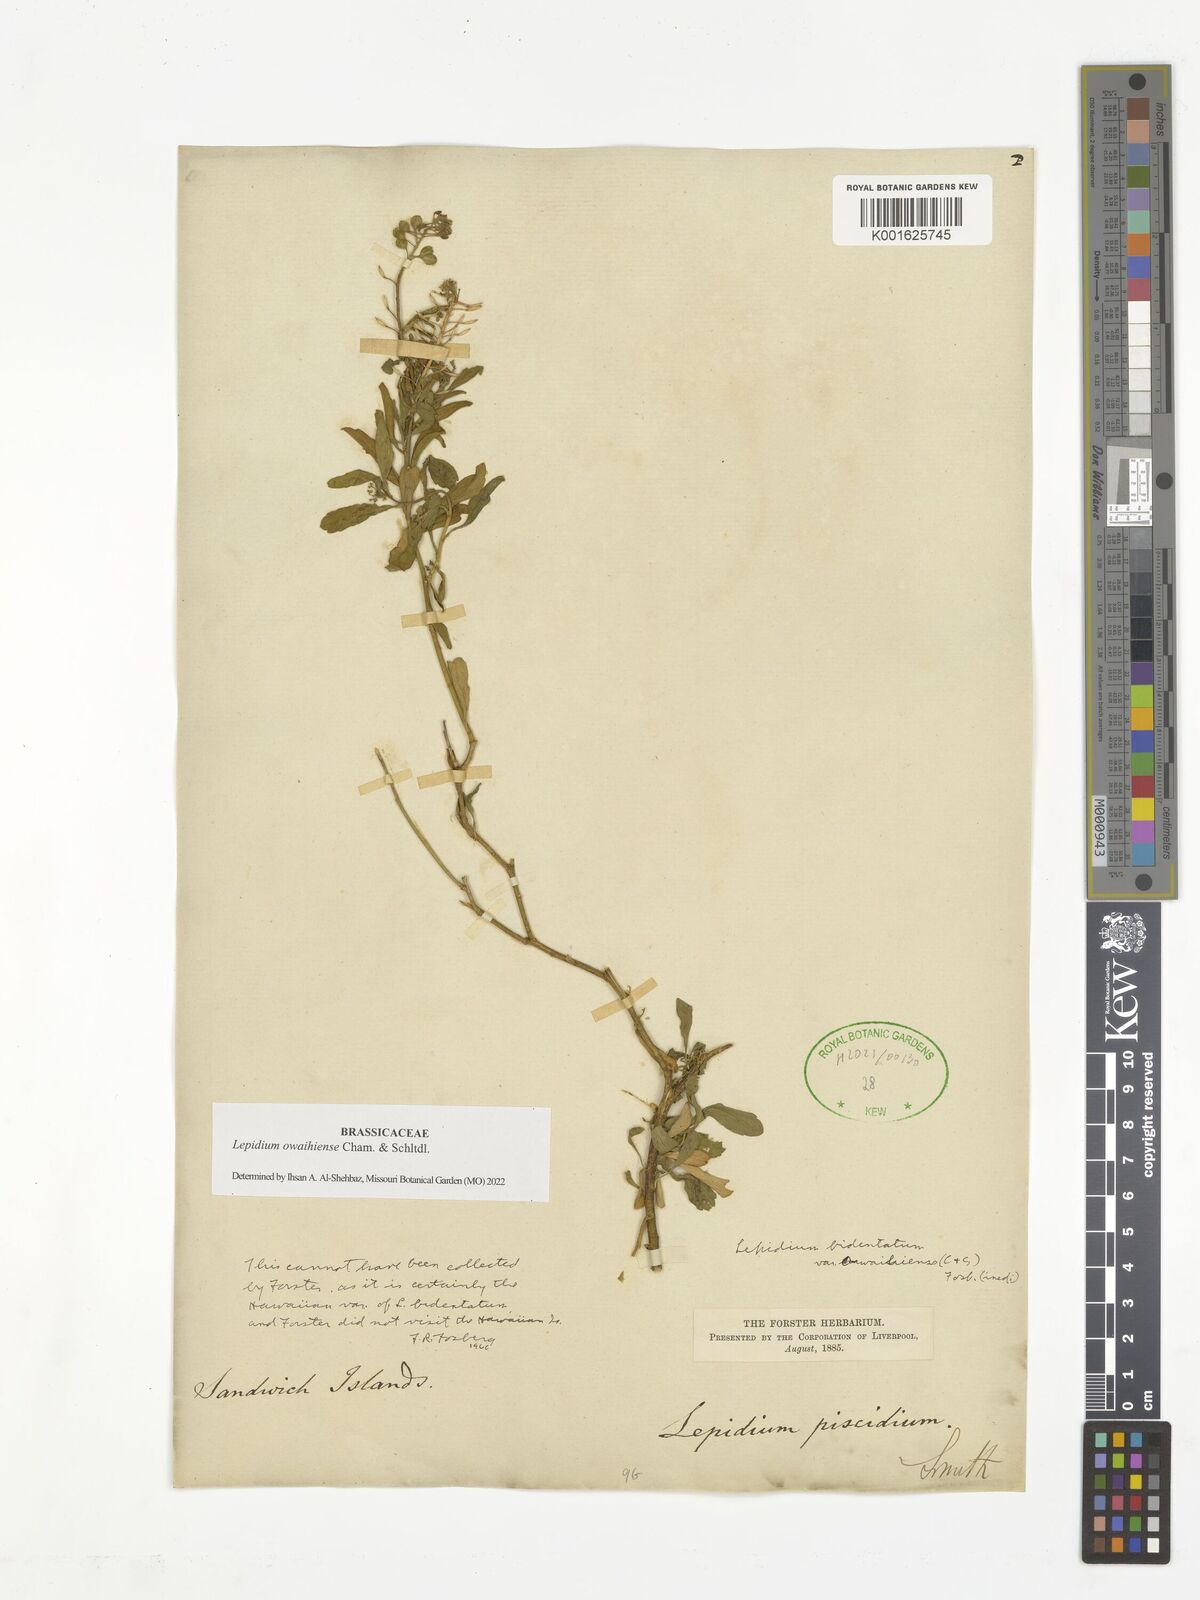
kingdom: Plantae
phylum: Tracheophyta
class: Magnoliopsida
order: Brassicales
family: Brassicaceae
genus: Lepidium
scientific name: Lepidium owaihiense
